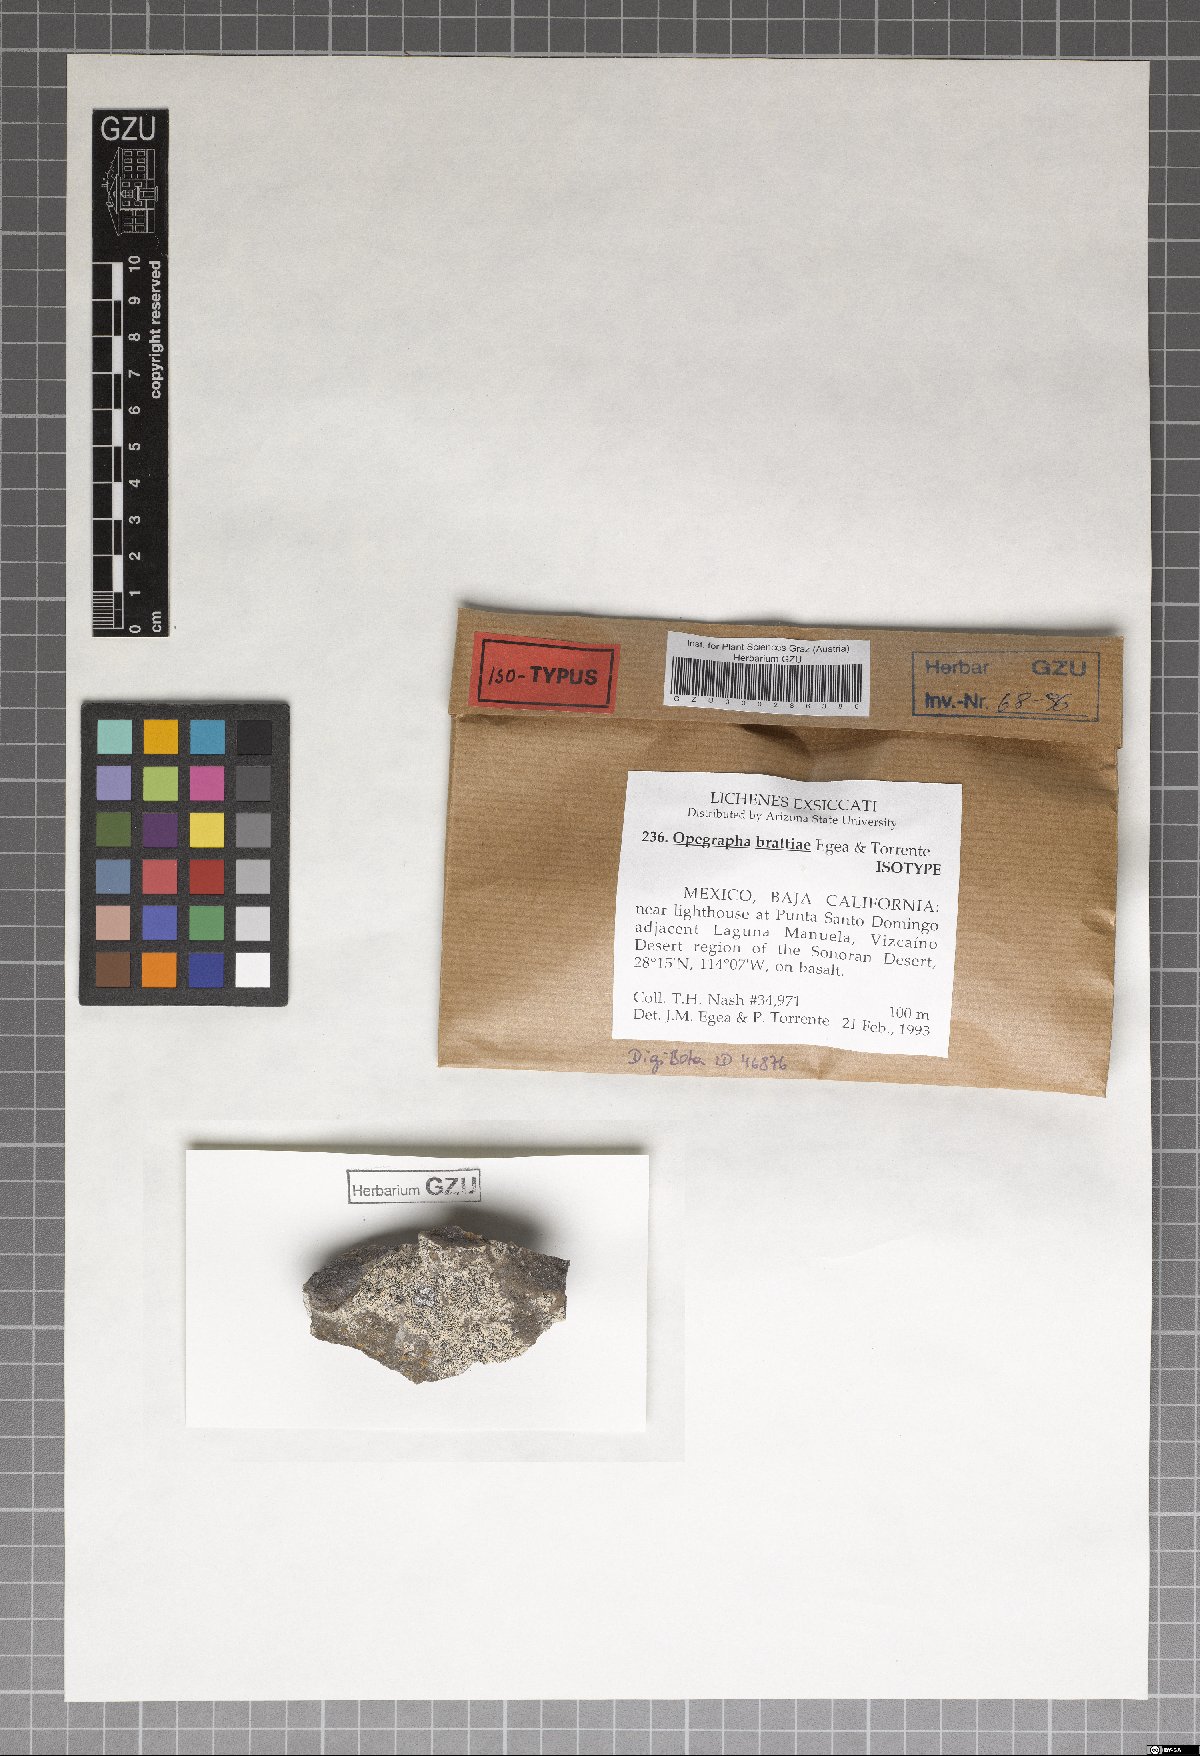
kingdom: Fungi
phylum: Ascomycota
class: Arthoniomycetes
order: Arthoniales
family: Lecanographaceae
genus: Lecanographa
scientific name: Lecanographa brattiae
